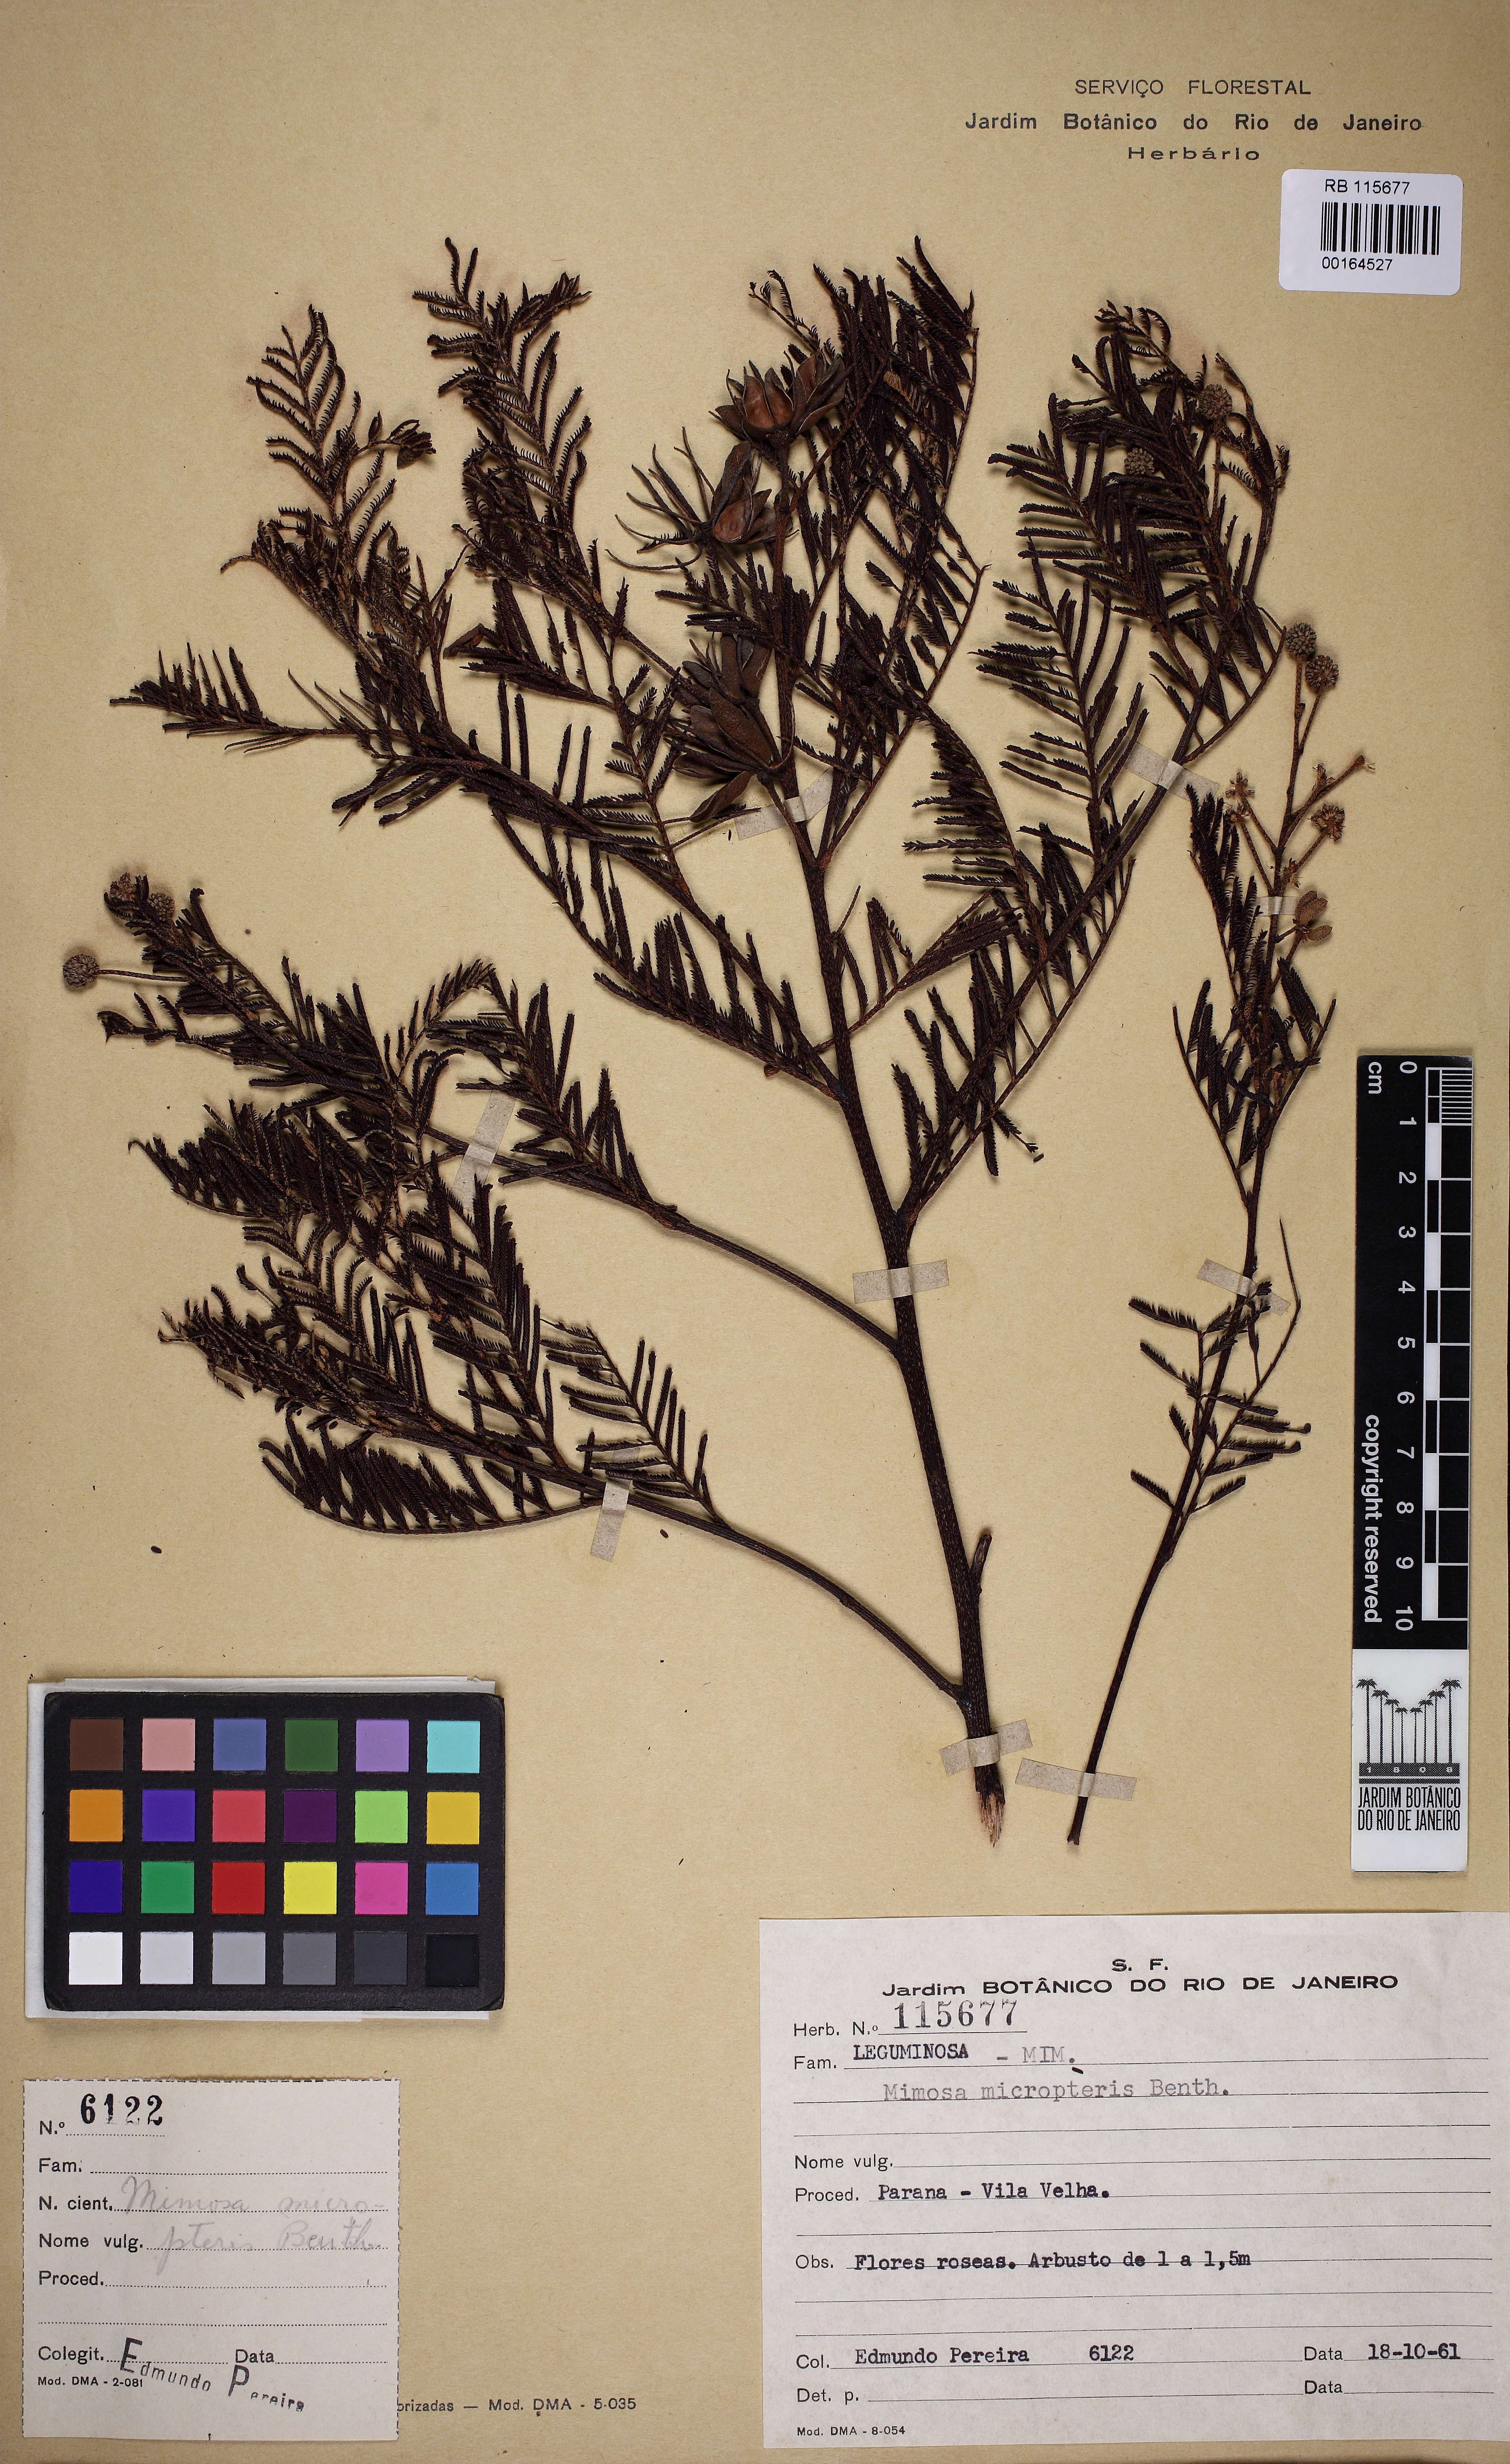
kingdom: Plantae
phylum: Tracheophyta
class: Magnoliopsida
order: Fabales
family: Fabaceae
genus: Mimosa
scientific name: Mimosa micropteris
